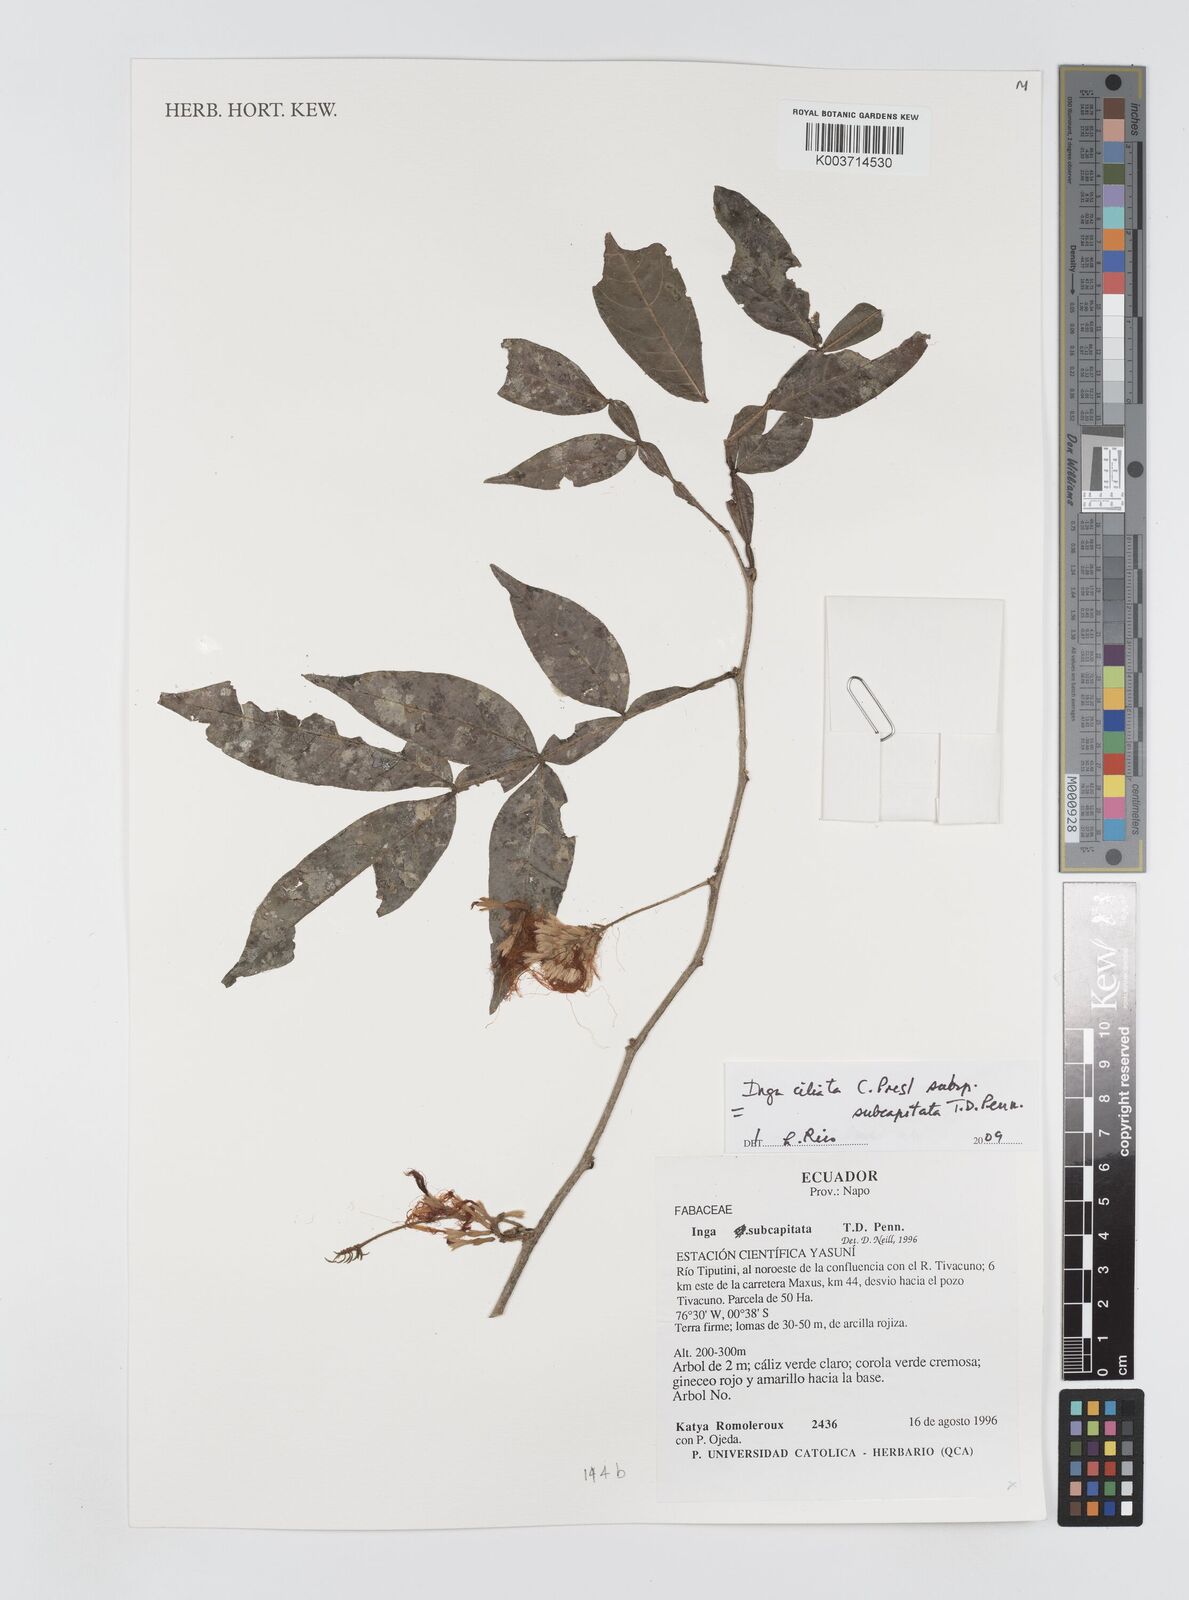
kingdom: Plantae
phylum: Tracheophyta
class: Magnoliopsida
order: Fabales
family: Fabaceae
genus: Inga
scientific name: Inga ciliata
